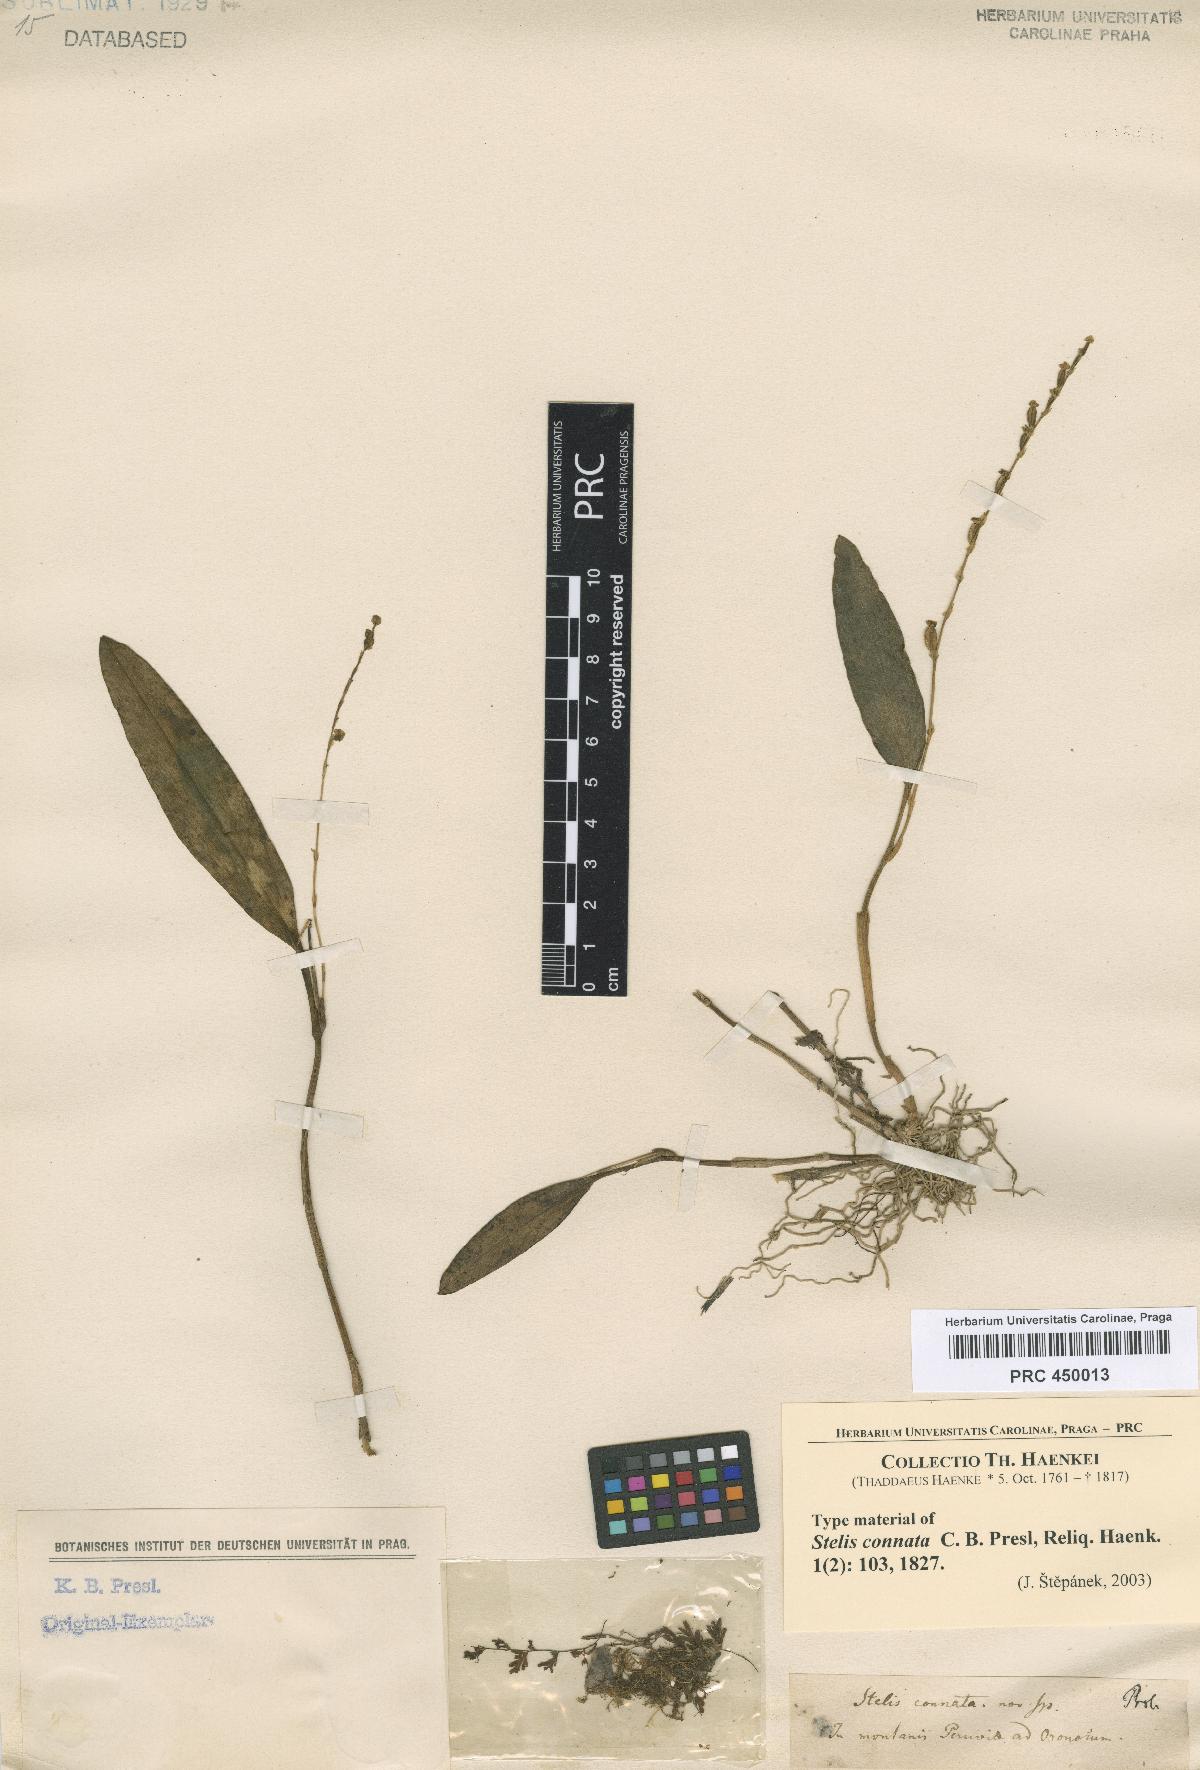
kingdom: Plantae
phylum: Tracheophyta
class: Liliopsida
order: Asparagales
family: Orchidaceae
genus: Stelis
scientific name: Stelis purpurea
